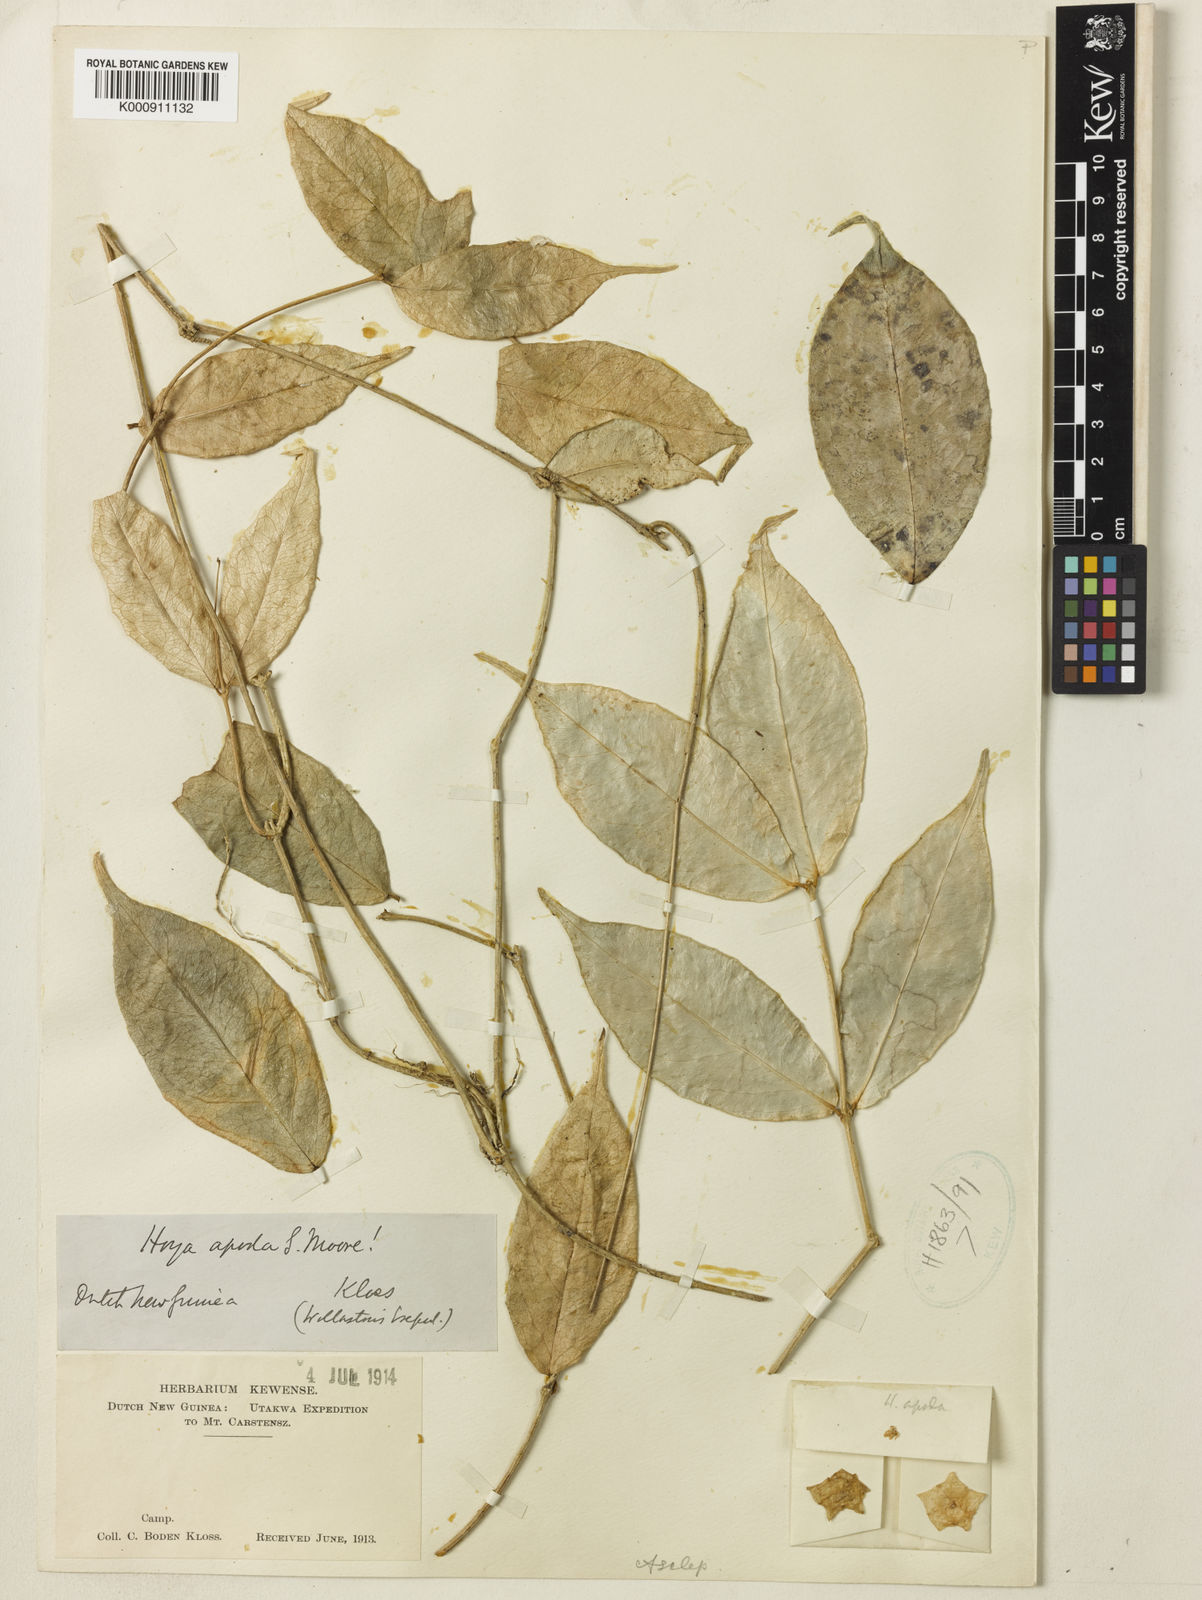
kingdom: Plantae
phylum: Tracheophyta
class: Magnoliopsida
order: Gentianales
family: Apocynaceae
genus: Hoya
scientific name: Hoya apoda
